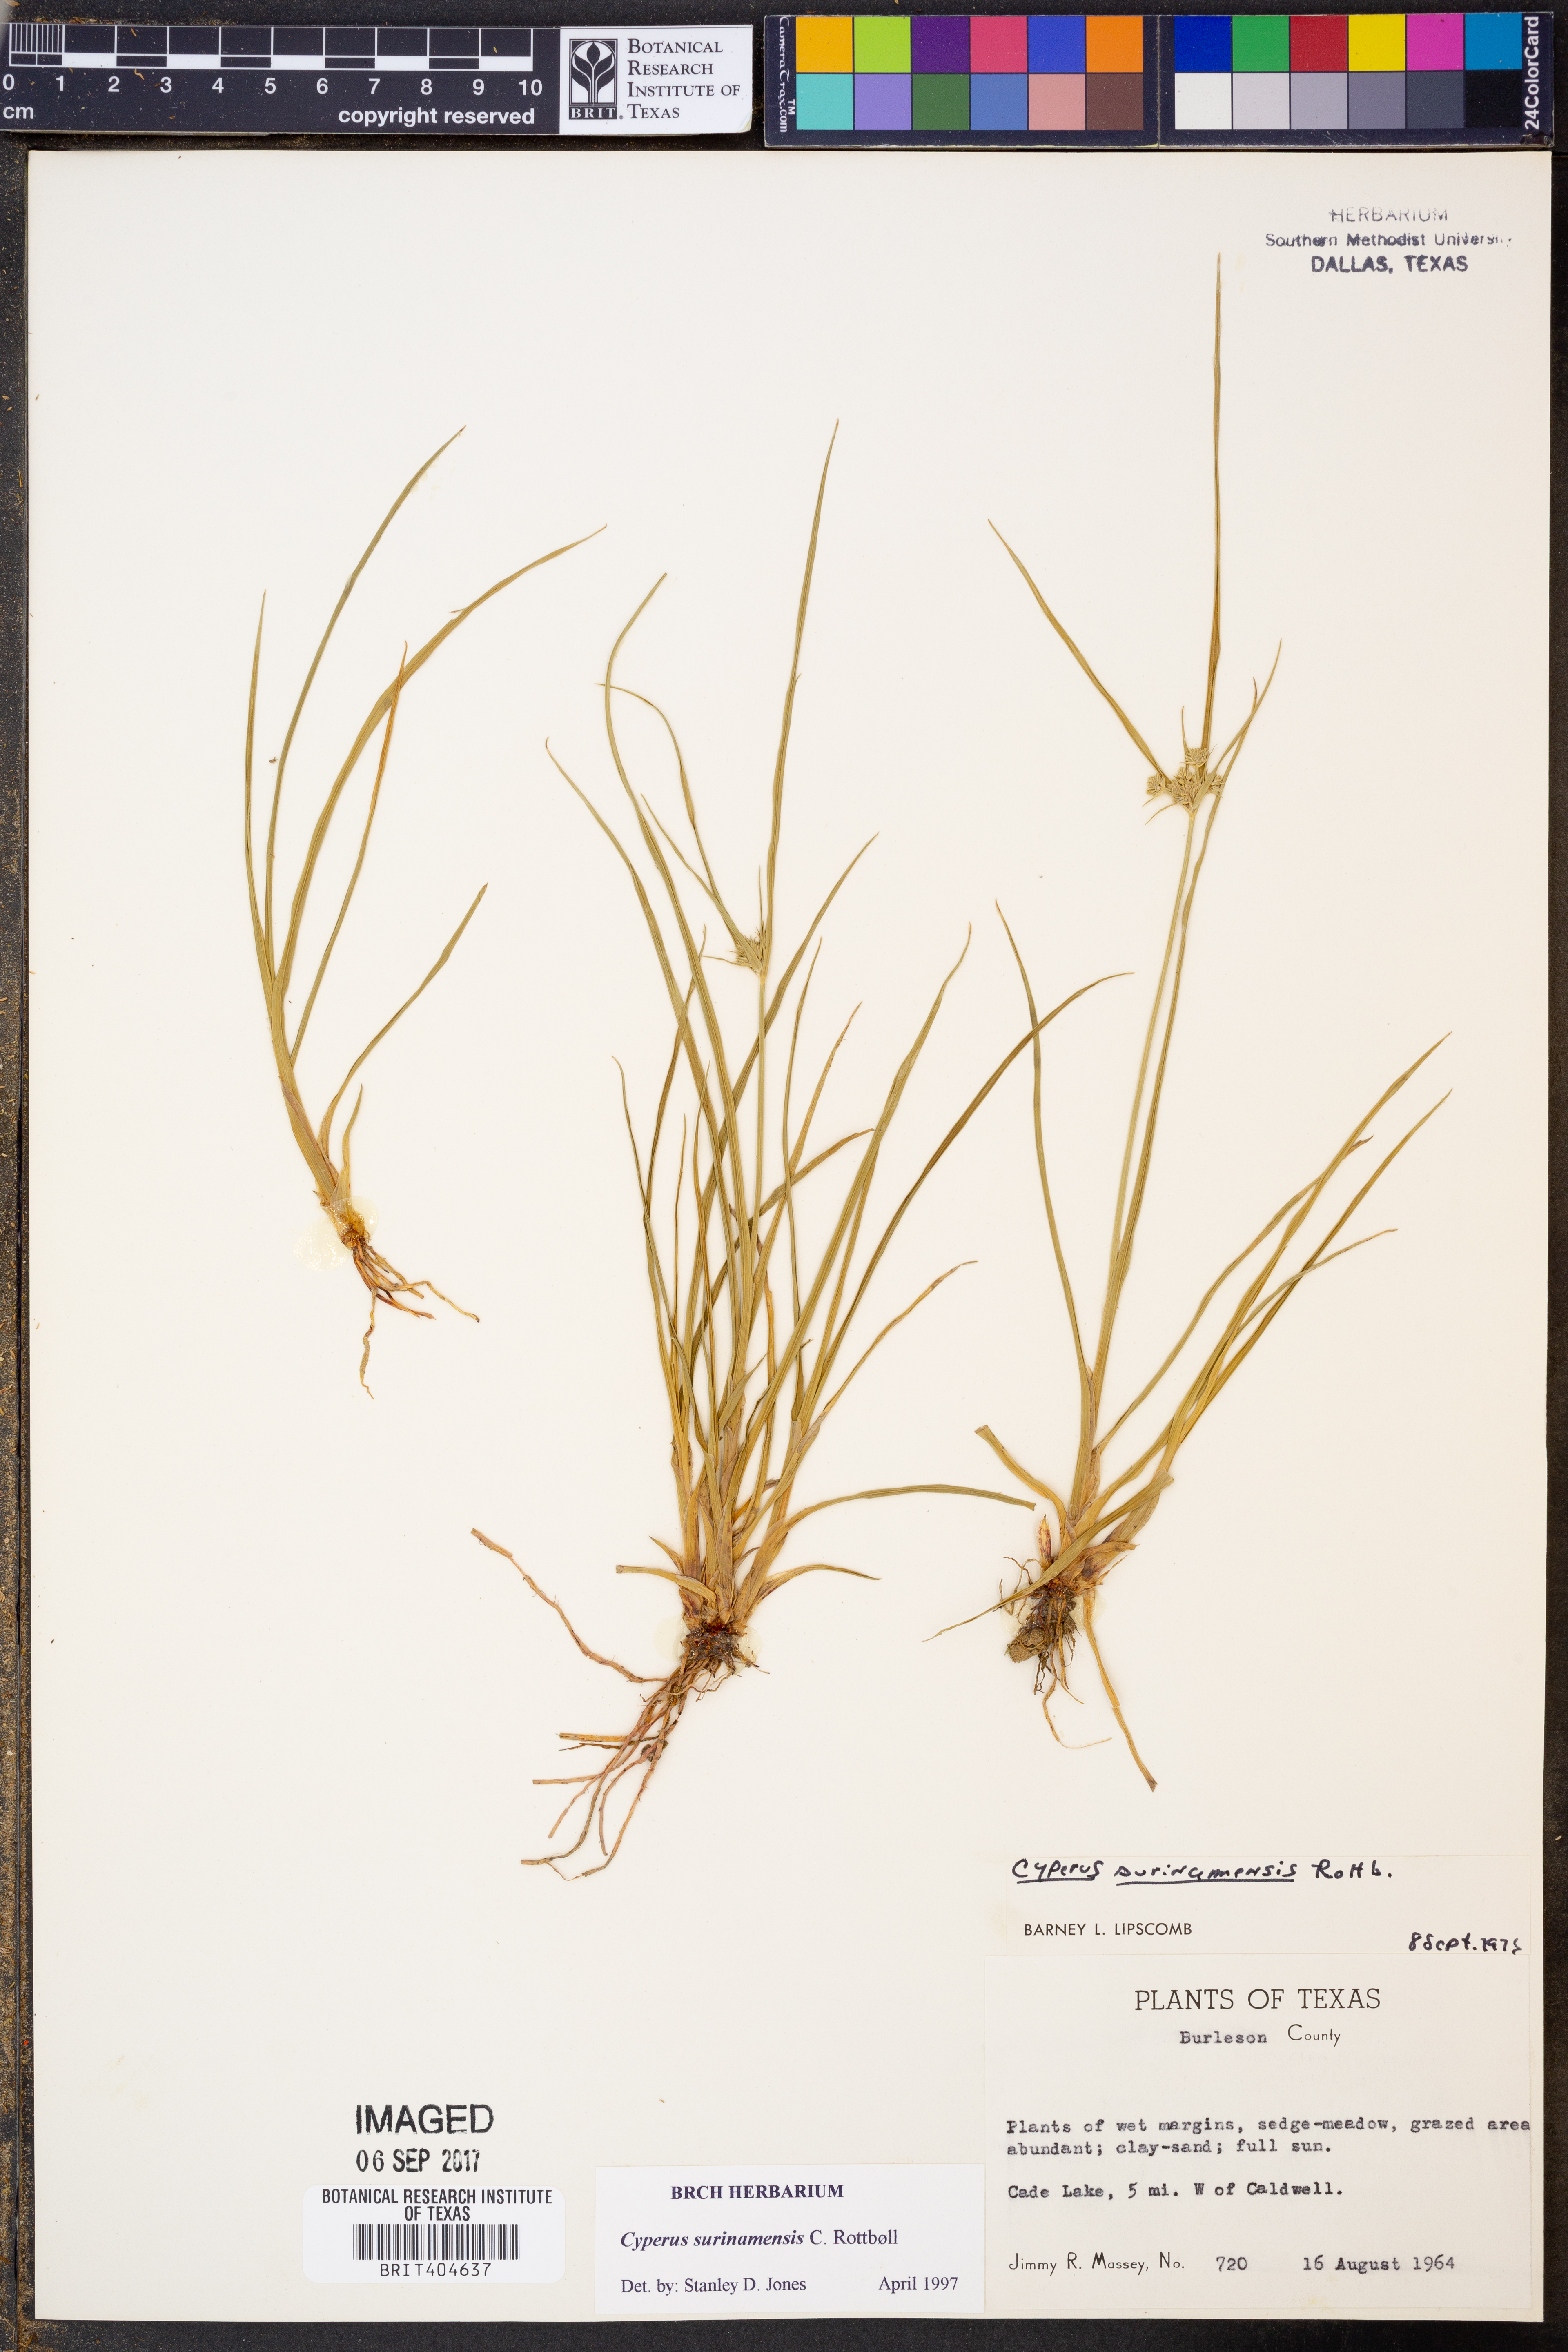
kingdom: Plantae
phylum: Tracheophyta
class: Liliopsida
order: Poales
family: Cyperaceae
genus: Cyperus
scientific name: Cyperus surinamensis
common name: Tropical flat sedge
